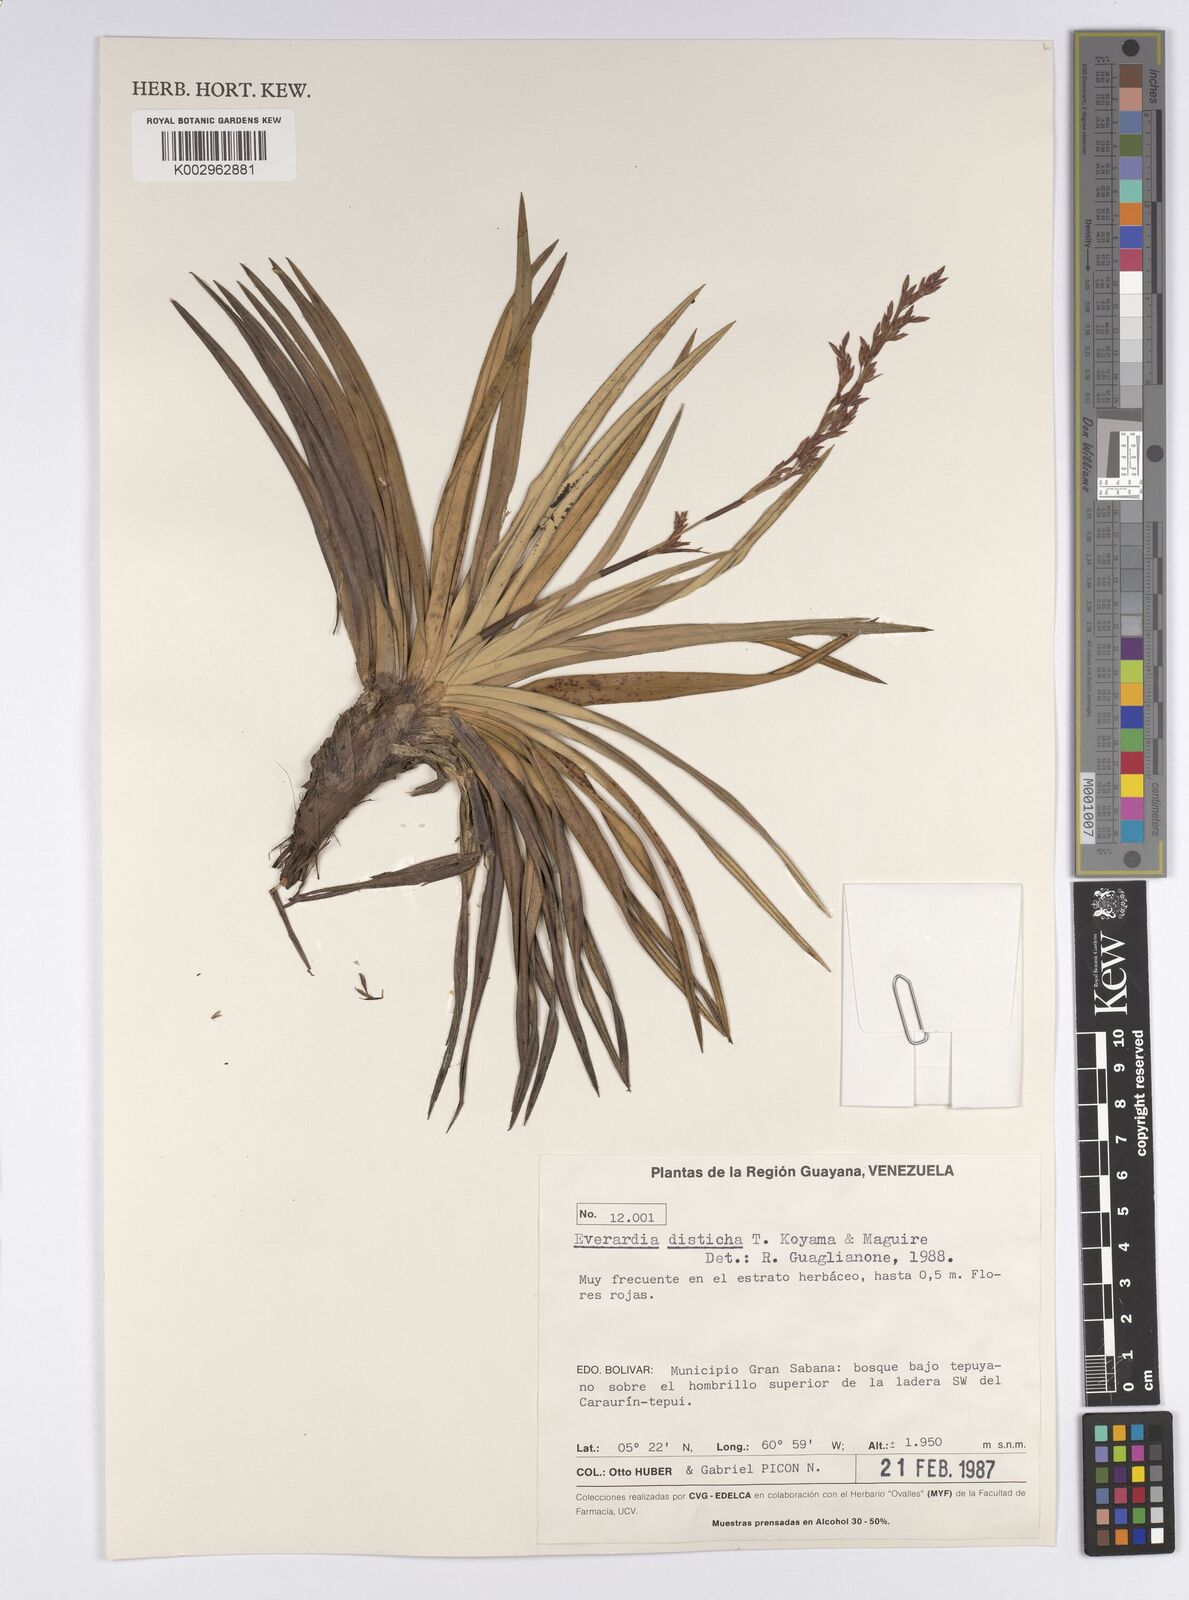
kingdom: Plantae
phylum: Tracheophyta
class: Liliopsida
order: Poales
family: Cyperaceae
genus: Cephalocarpus
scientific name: Cephalocarpus distichus
